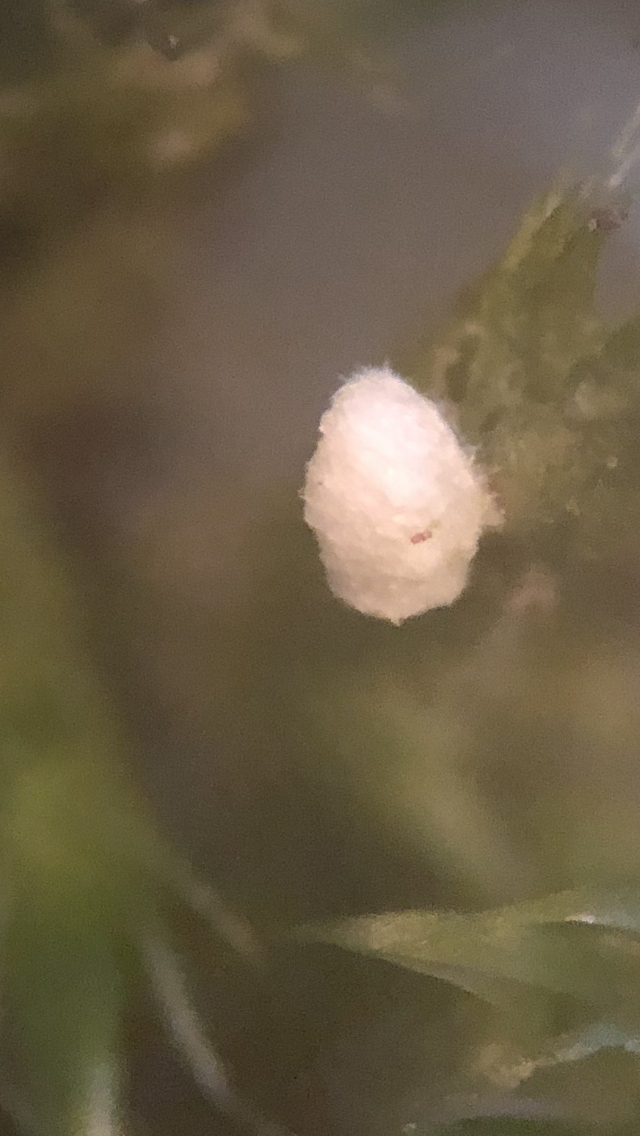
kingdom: Fungi
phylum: Basidiomycota
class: Agaricomycetes
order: Agaricales
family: Chromocyphellaceae
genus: Chromocyphella
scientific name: Chromocyphella muscicola
